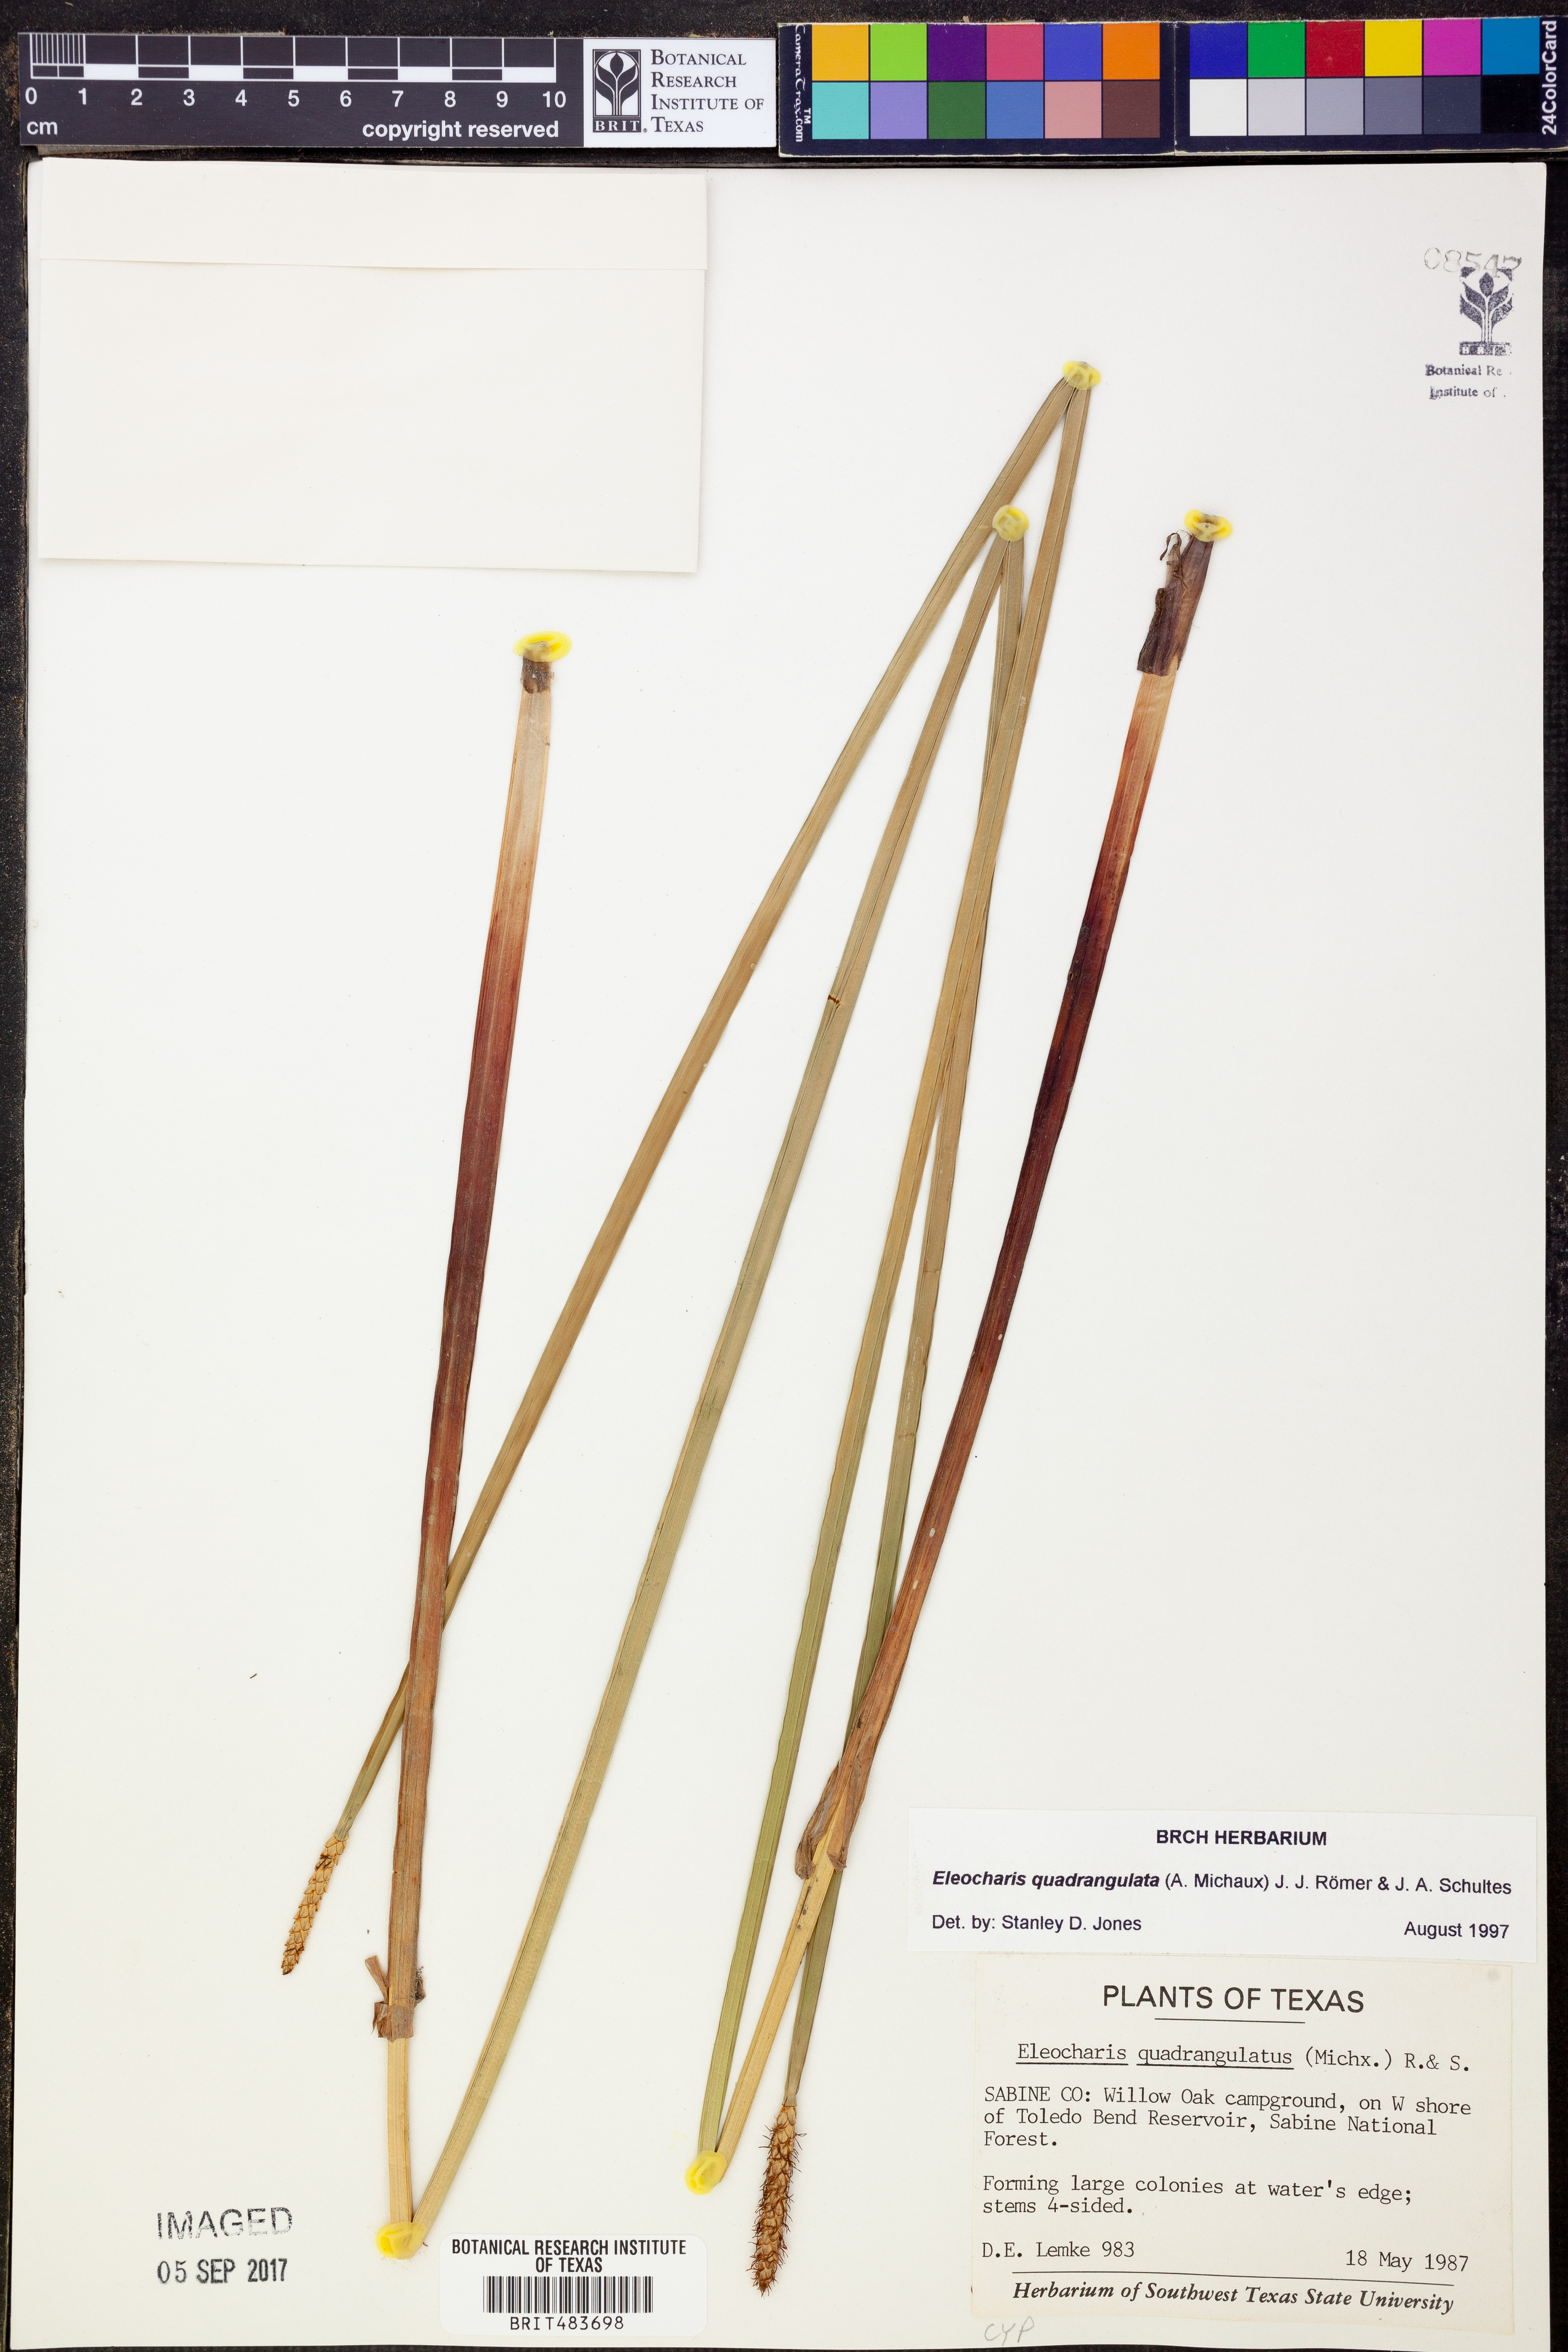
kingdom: Plantae
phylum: Tracheophyta
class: Liliopsida
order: Poales
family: Cyperaceae
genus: Eleocharis
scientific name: Eleocharis quadrangulata
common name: Square-stem spike-rush
